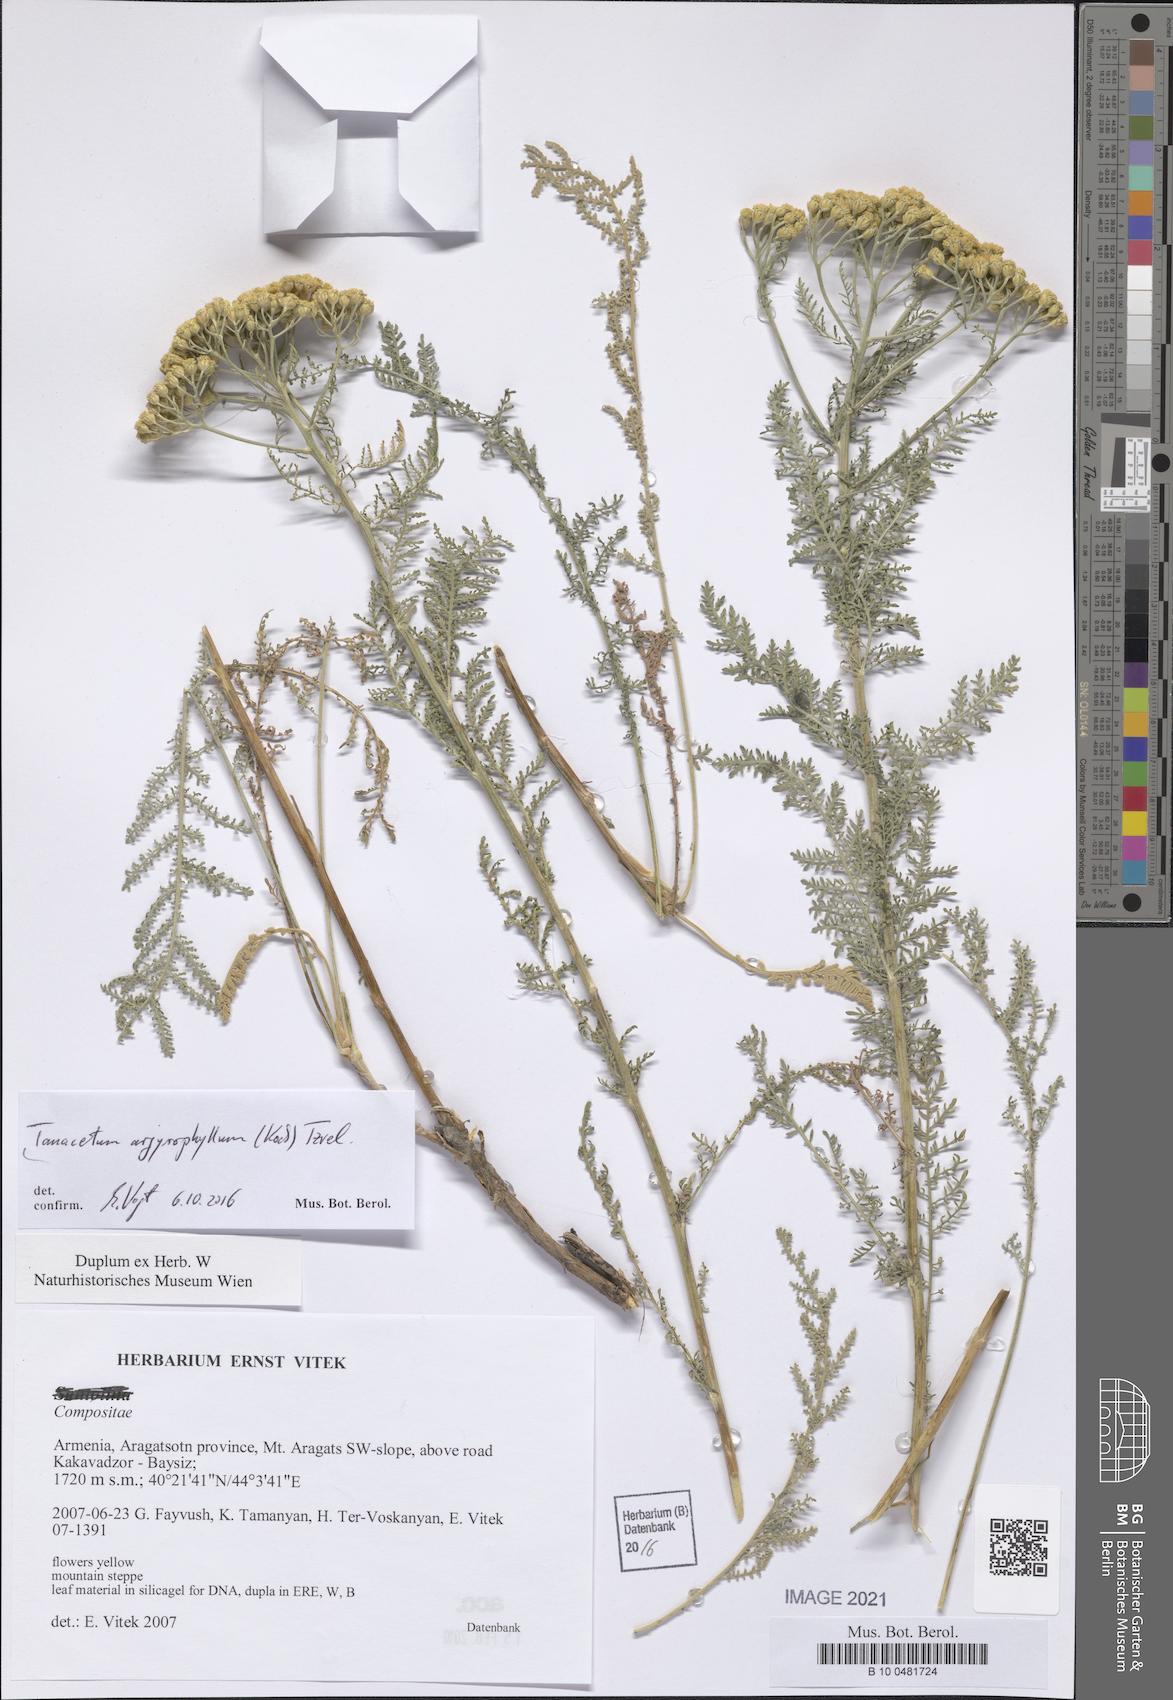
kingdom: Plantae
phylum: Tracheophyta
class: Magnoliopsida
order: Asterales
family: Asteraceae
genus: Tanacetum
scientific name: Tanacetum polycephalum
